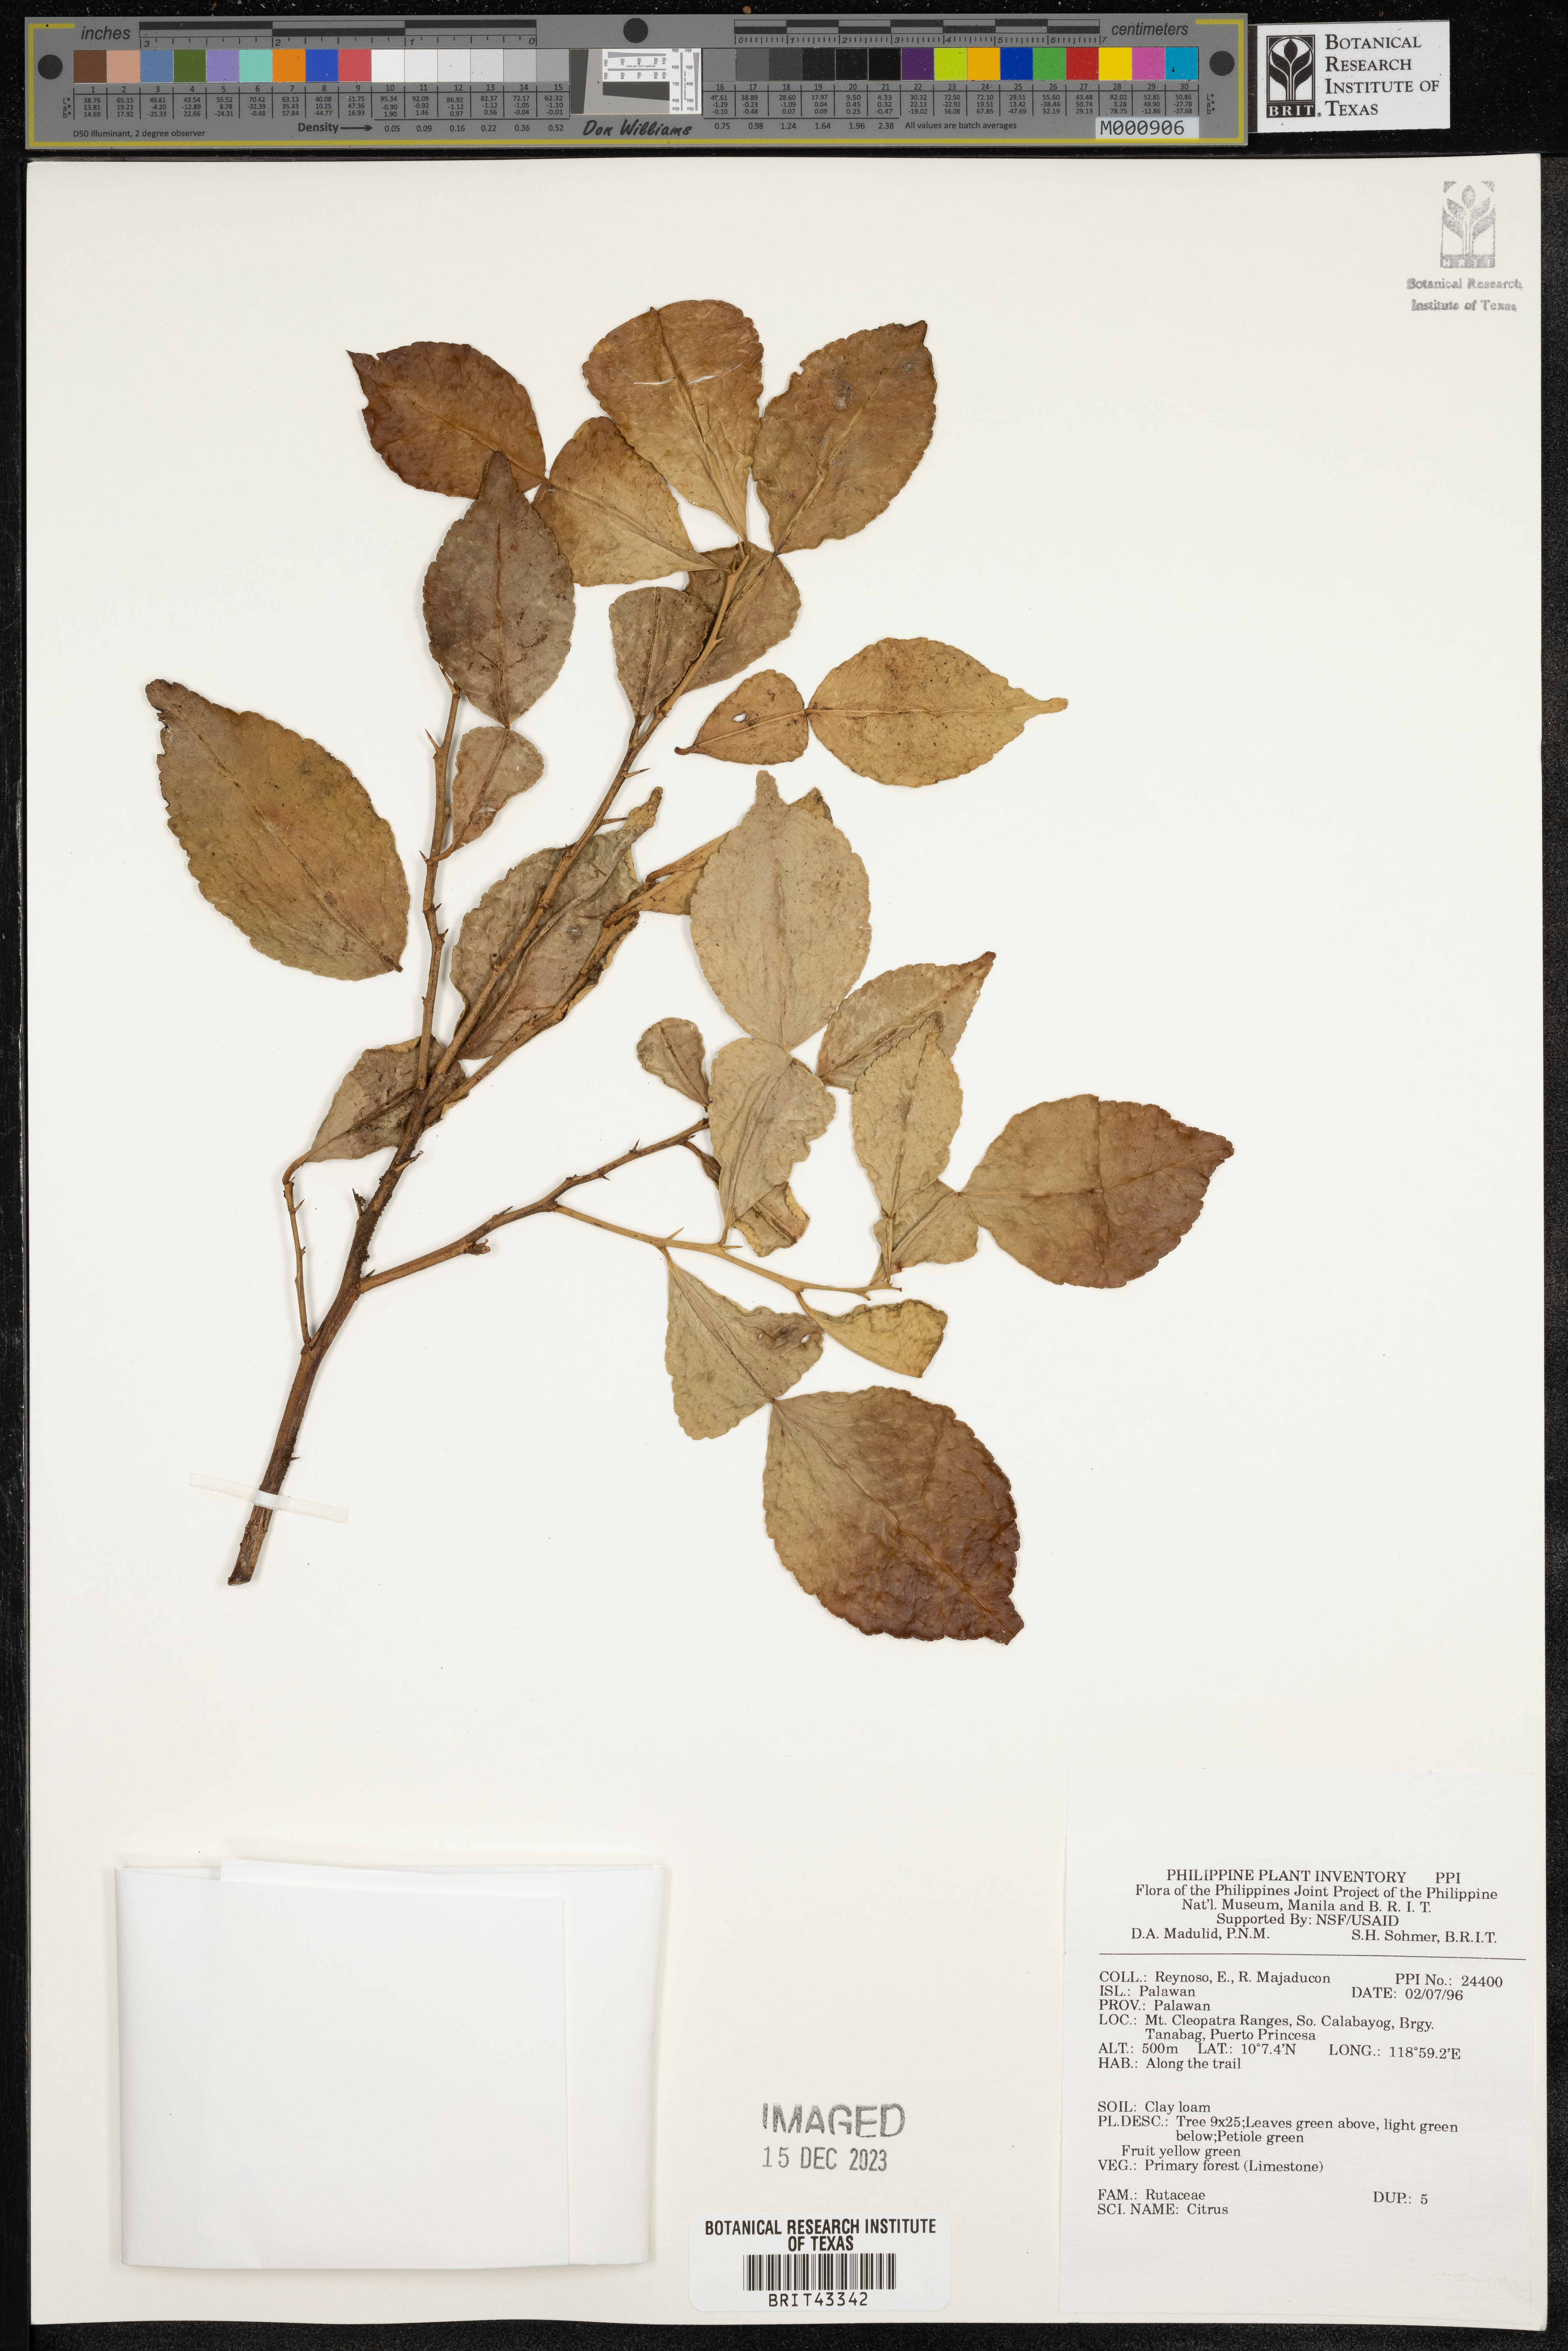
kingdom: Plantae
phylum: Tracheophyta
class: Magnoliopsida
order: Sapindales
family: Rutaceae
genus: Citrus
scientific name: Citrus
